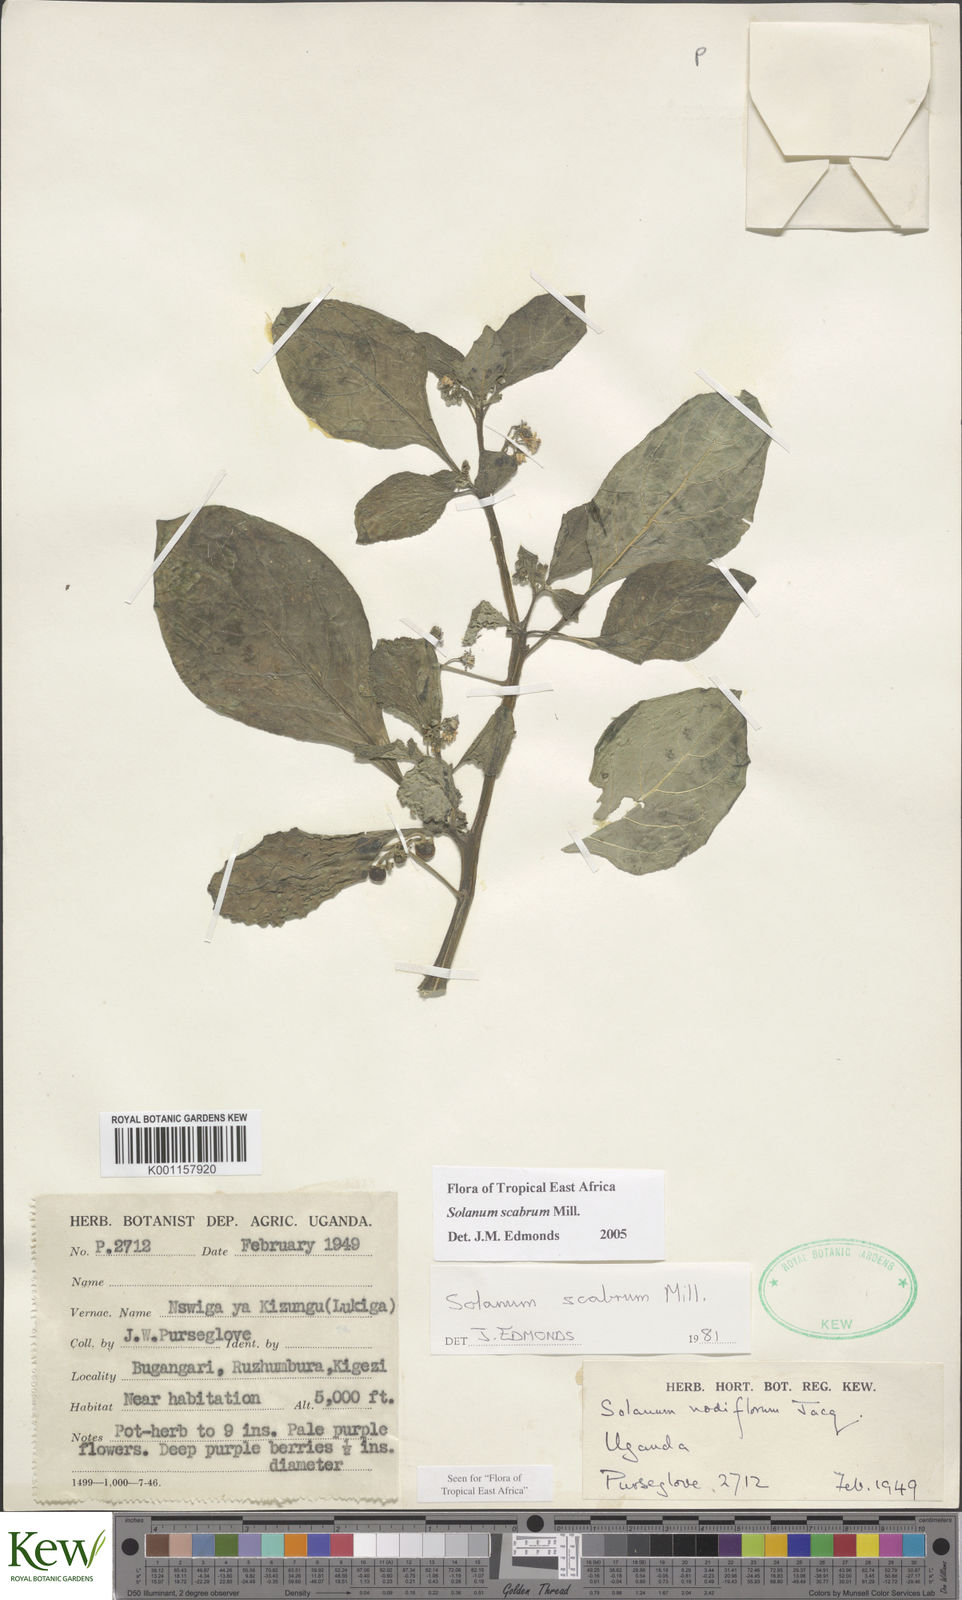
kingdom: Plantae
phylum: Tracheophyta
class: Magnoliopsida
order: Solanales
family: Solanaceae
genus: Solanum
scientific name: Solanum scabrum
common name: Garden-huckleberry
